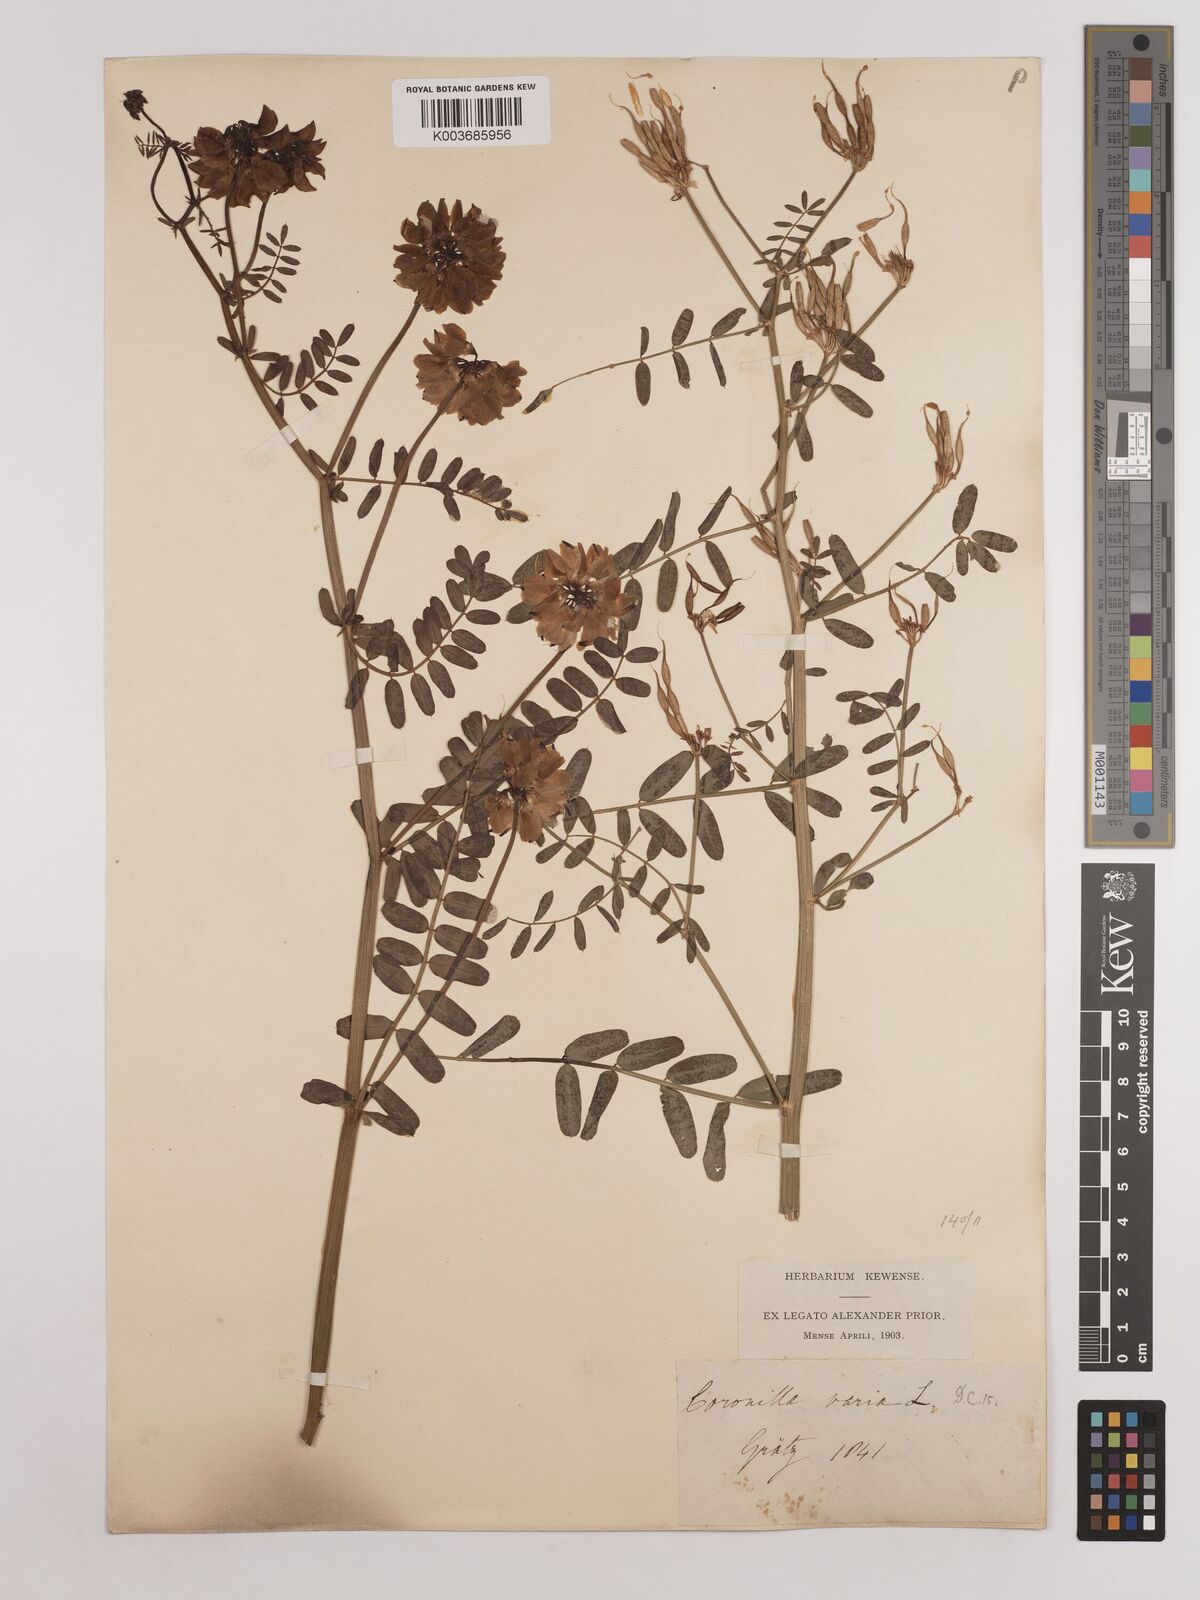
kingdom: Plantae
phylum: Tracheophyta
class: Magnoliopsida
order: Fabales
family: Fabaceae
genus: Coronilla
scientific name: Coronilla varia
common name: Crownvetch
